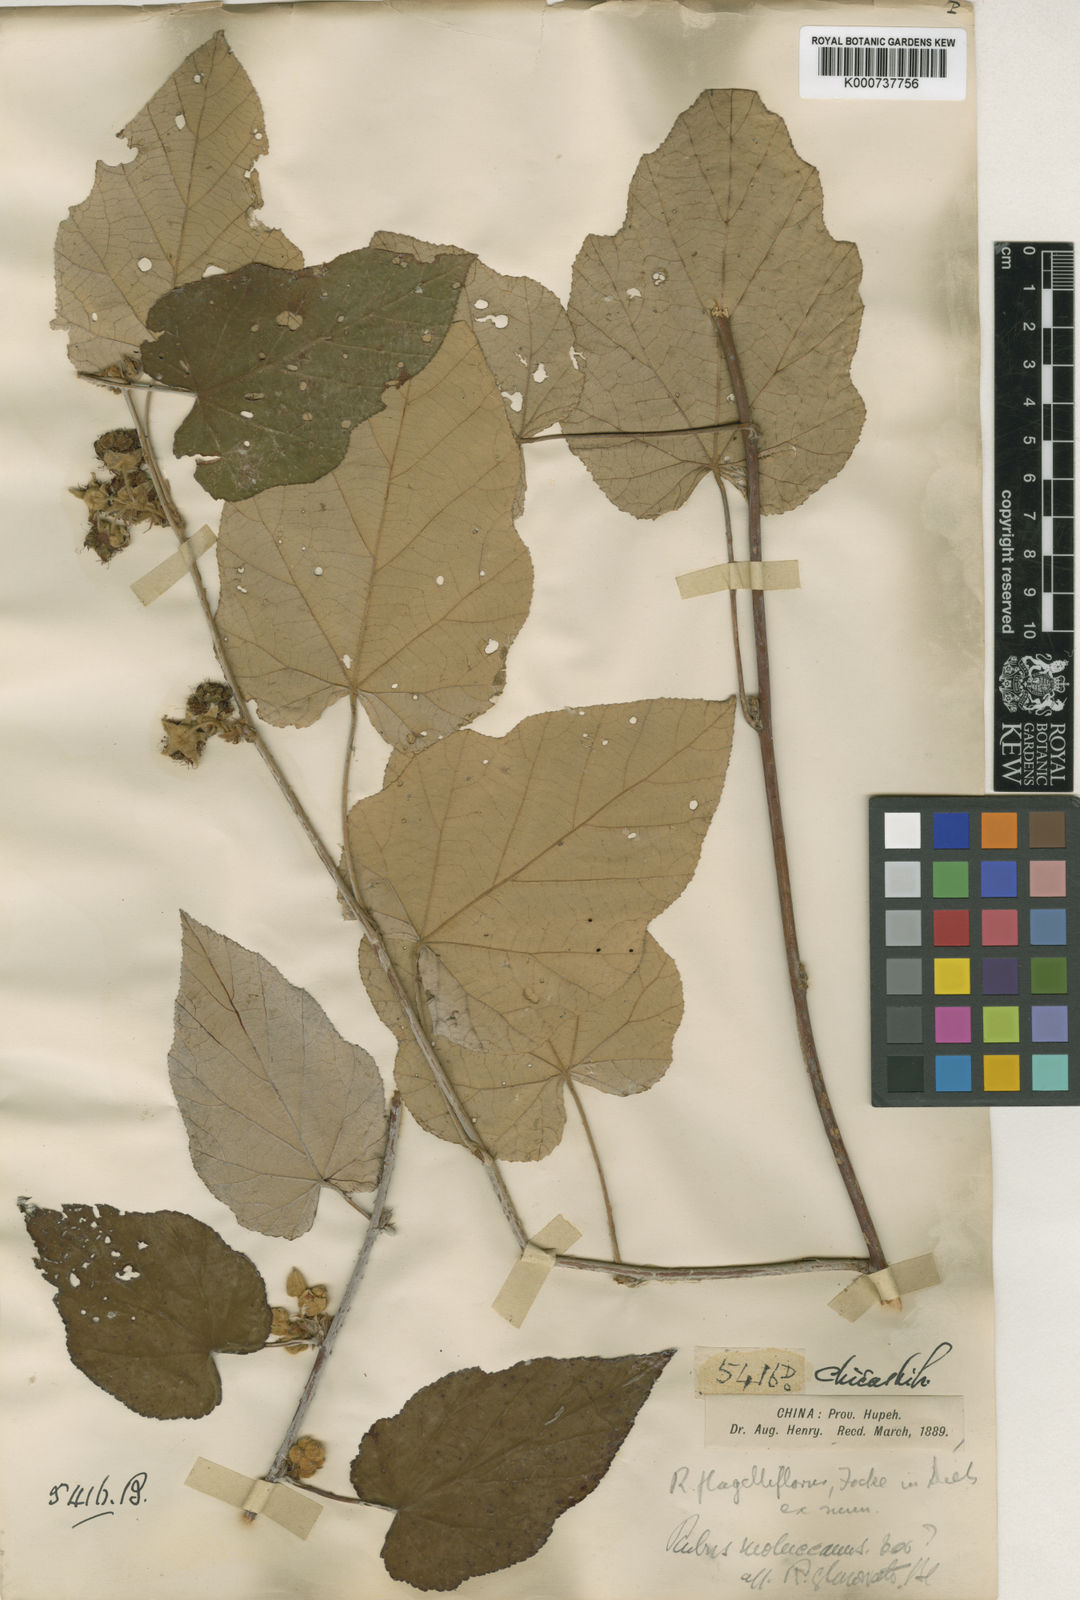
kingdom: Plantae
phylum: Tracheophyta
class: Magnoliopsida
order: Rosales
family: Rosaceae
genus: Rubus
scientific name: Rubus
